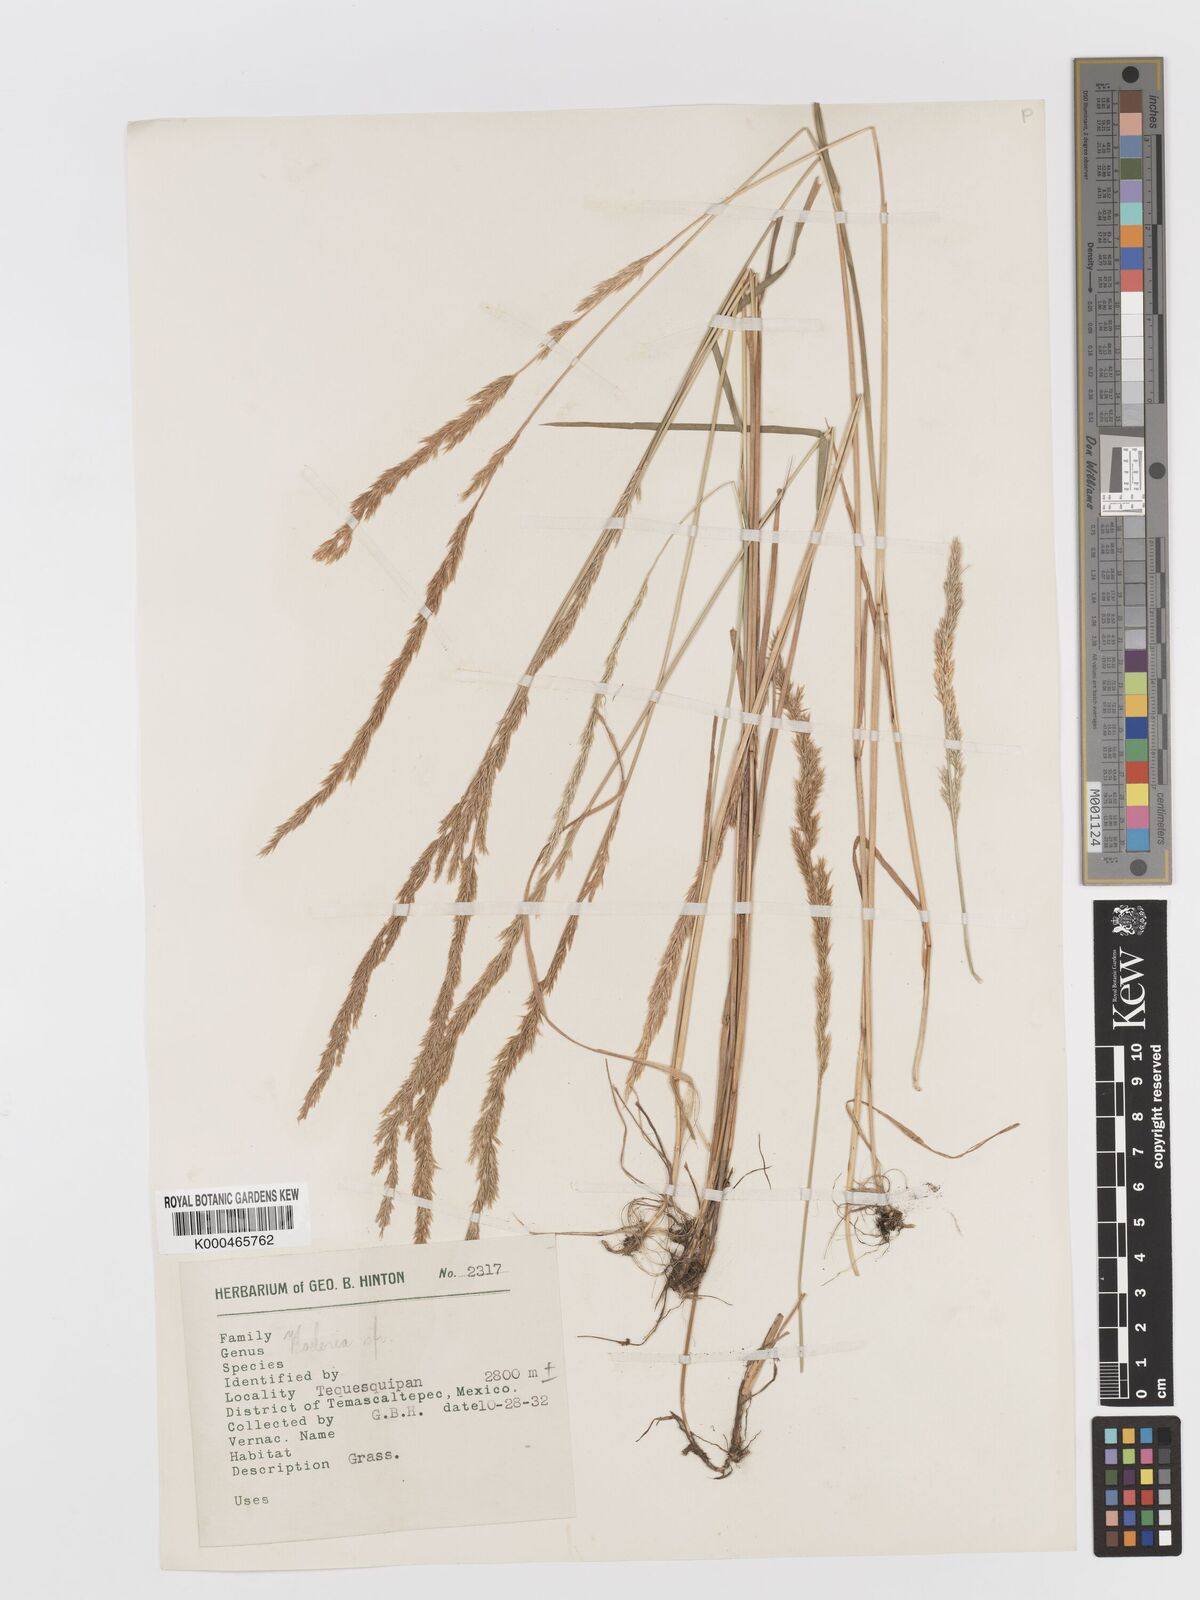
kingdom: Plantae
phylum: Tracheophyta
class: Liliopsida
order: Poales
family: Poaceae
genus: Koeleria
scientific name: Koeleria
